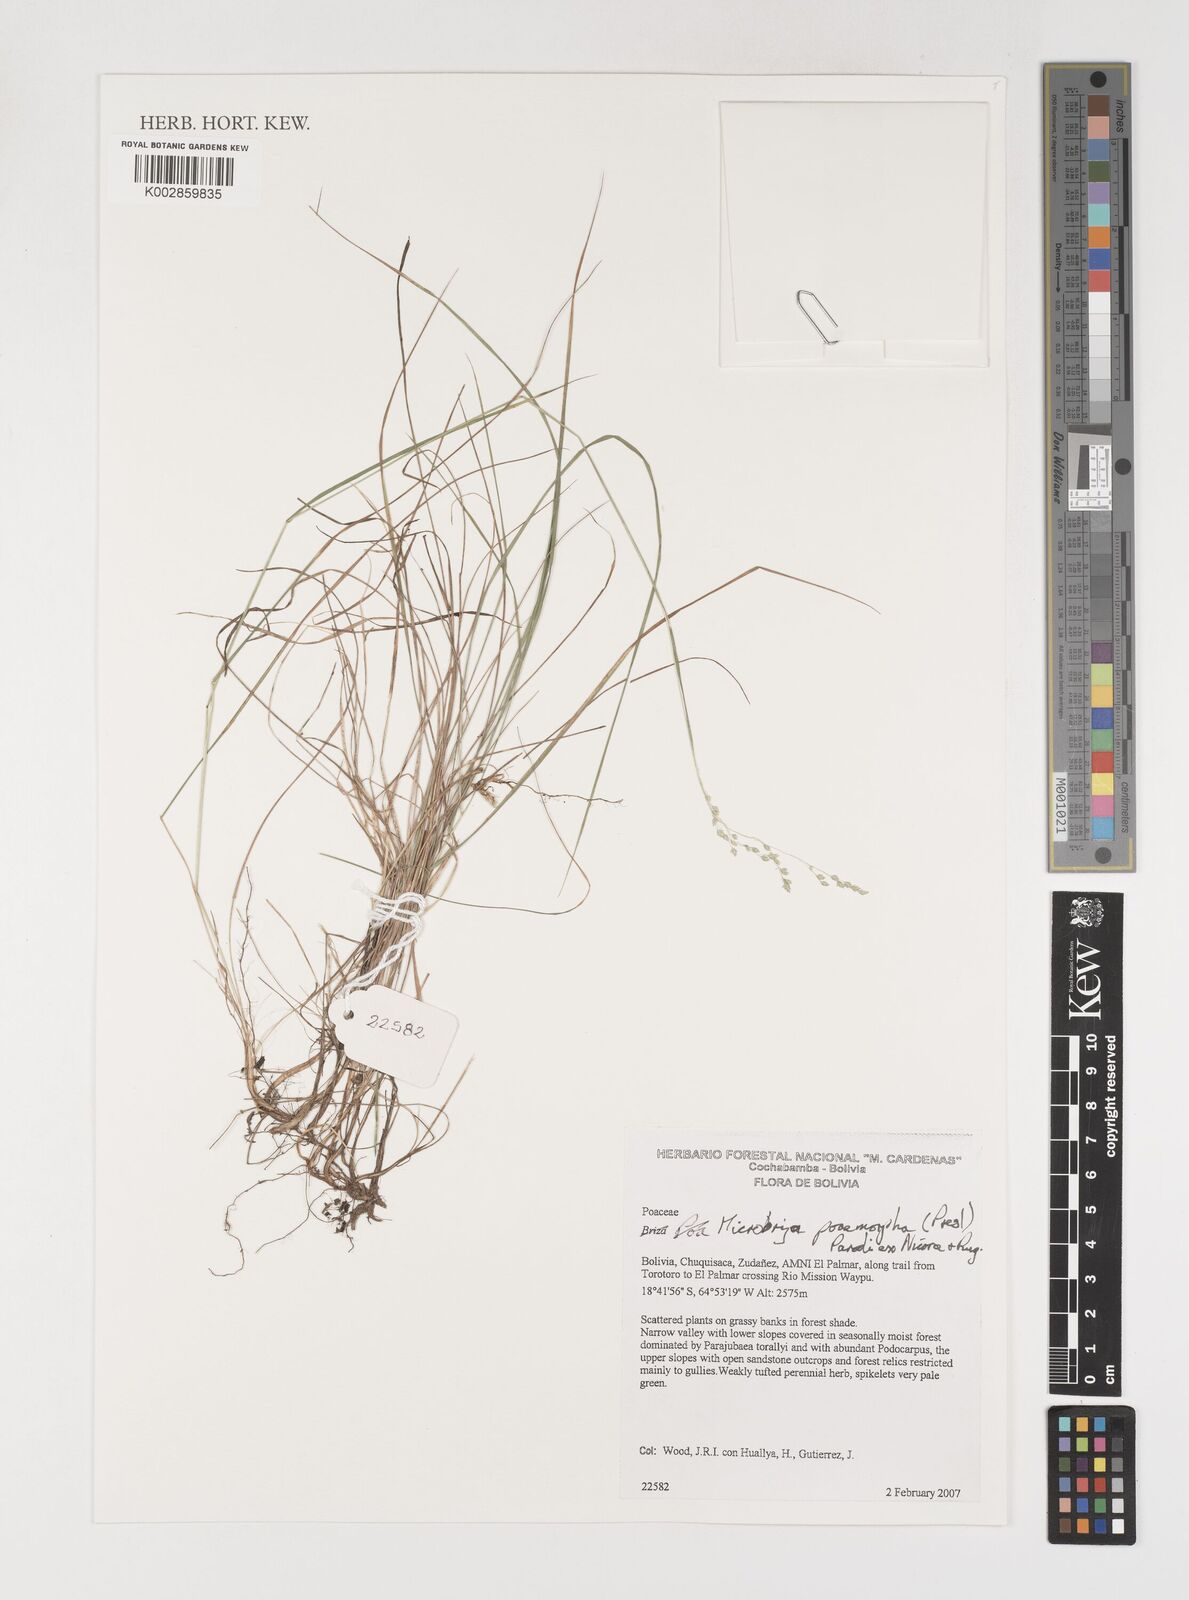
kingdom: Plantae
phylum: Tracheophyta
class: Liliopsida
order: Poales
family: Poaceae
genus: Microbriza
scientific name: Microbriza poimorpha
